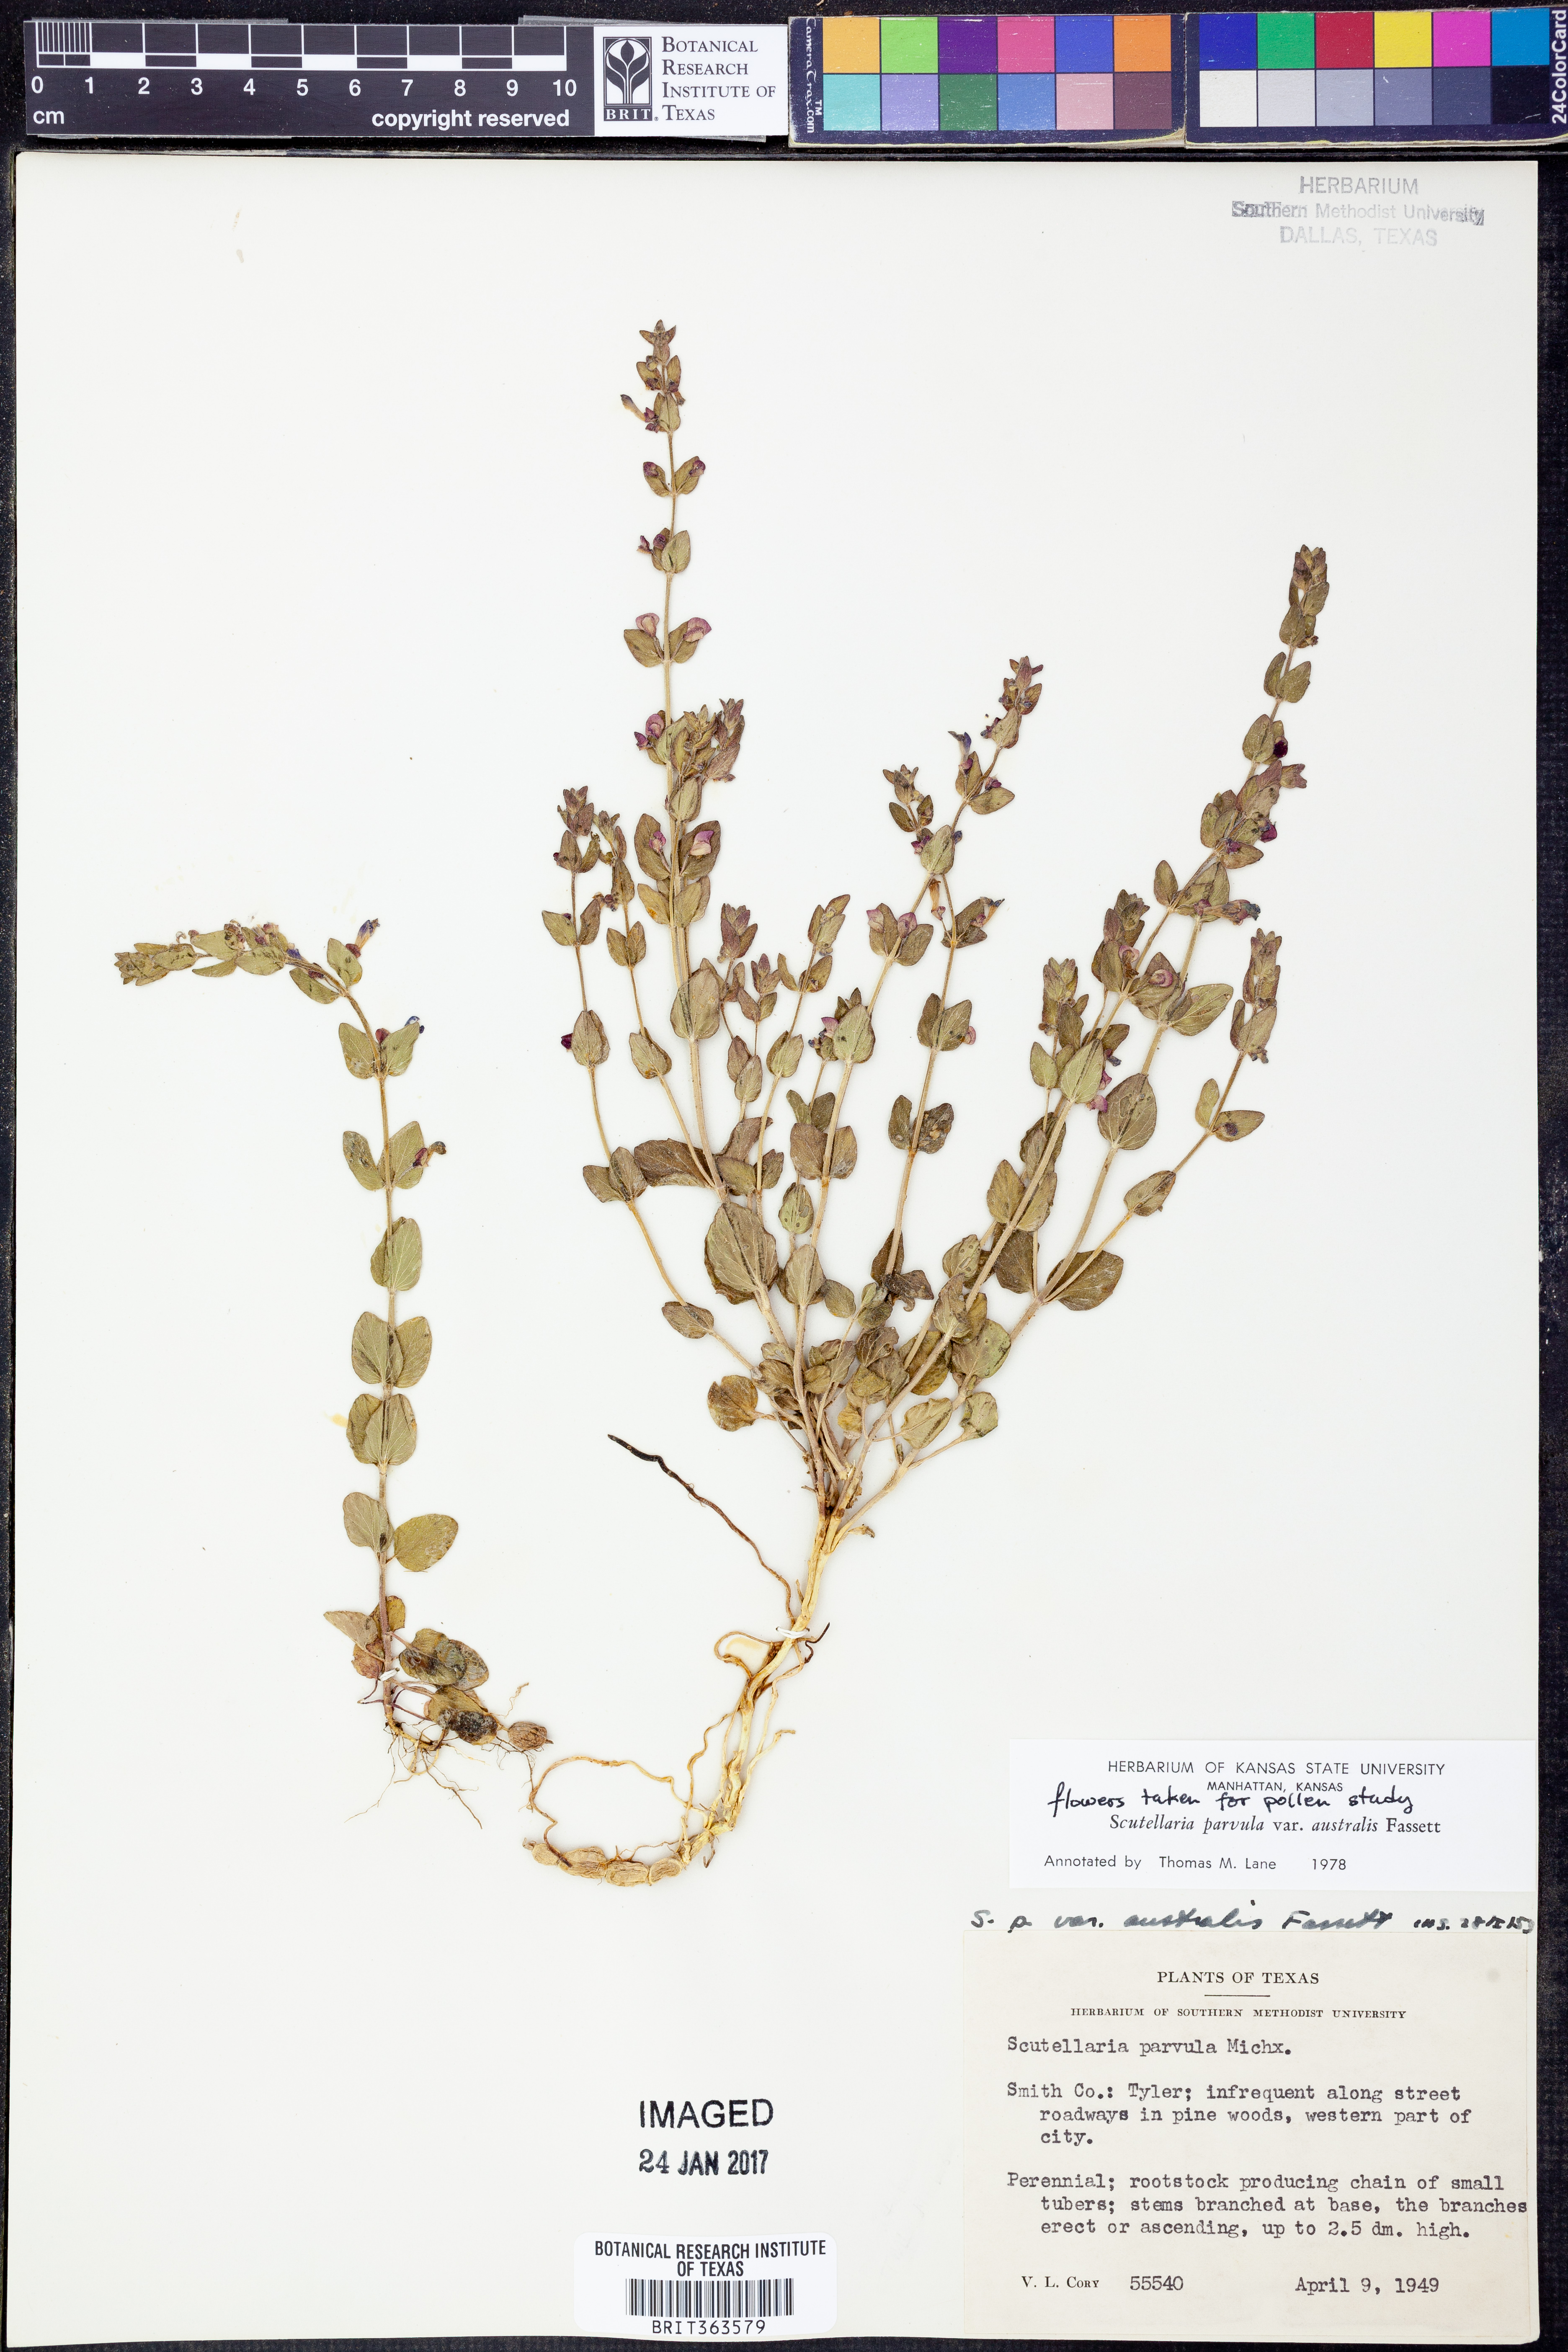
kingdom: Plantae
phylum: Tracheophyta
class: Magnoliopsida
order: Lamiales
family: Lamiaceae
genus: Scutellaria
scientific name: Scutellaria parvula
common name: Little scullcap
